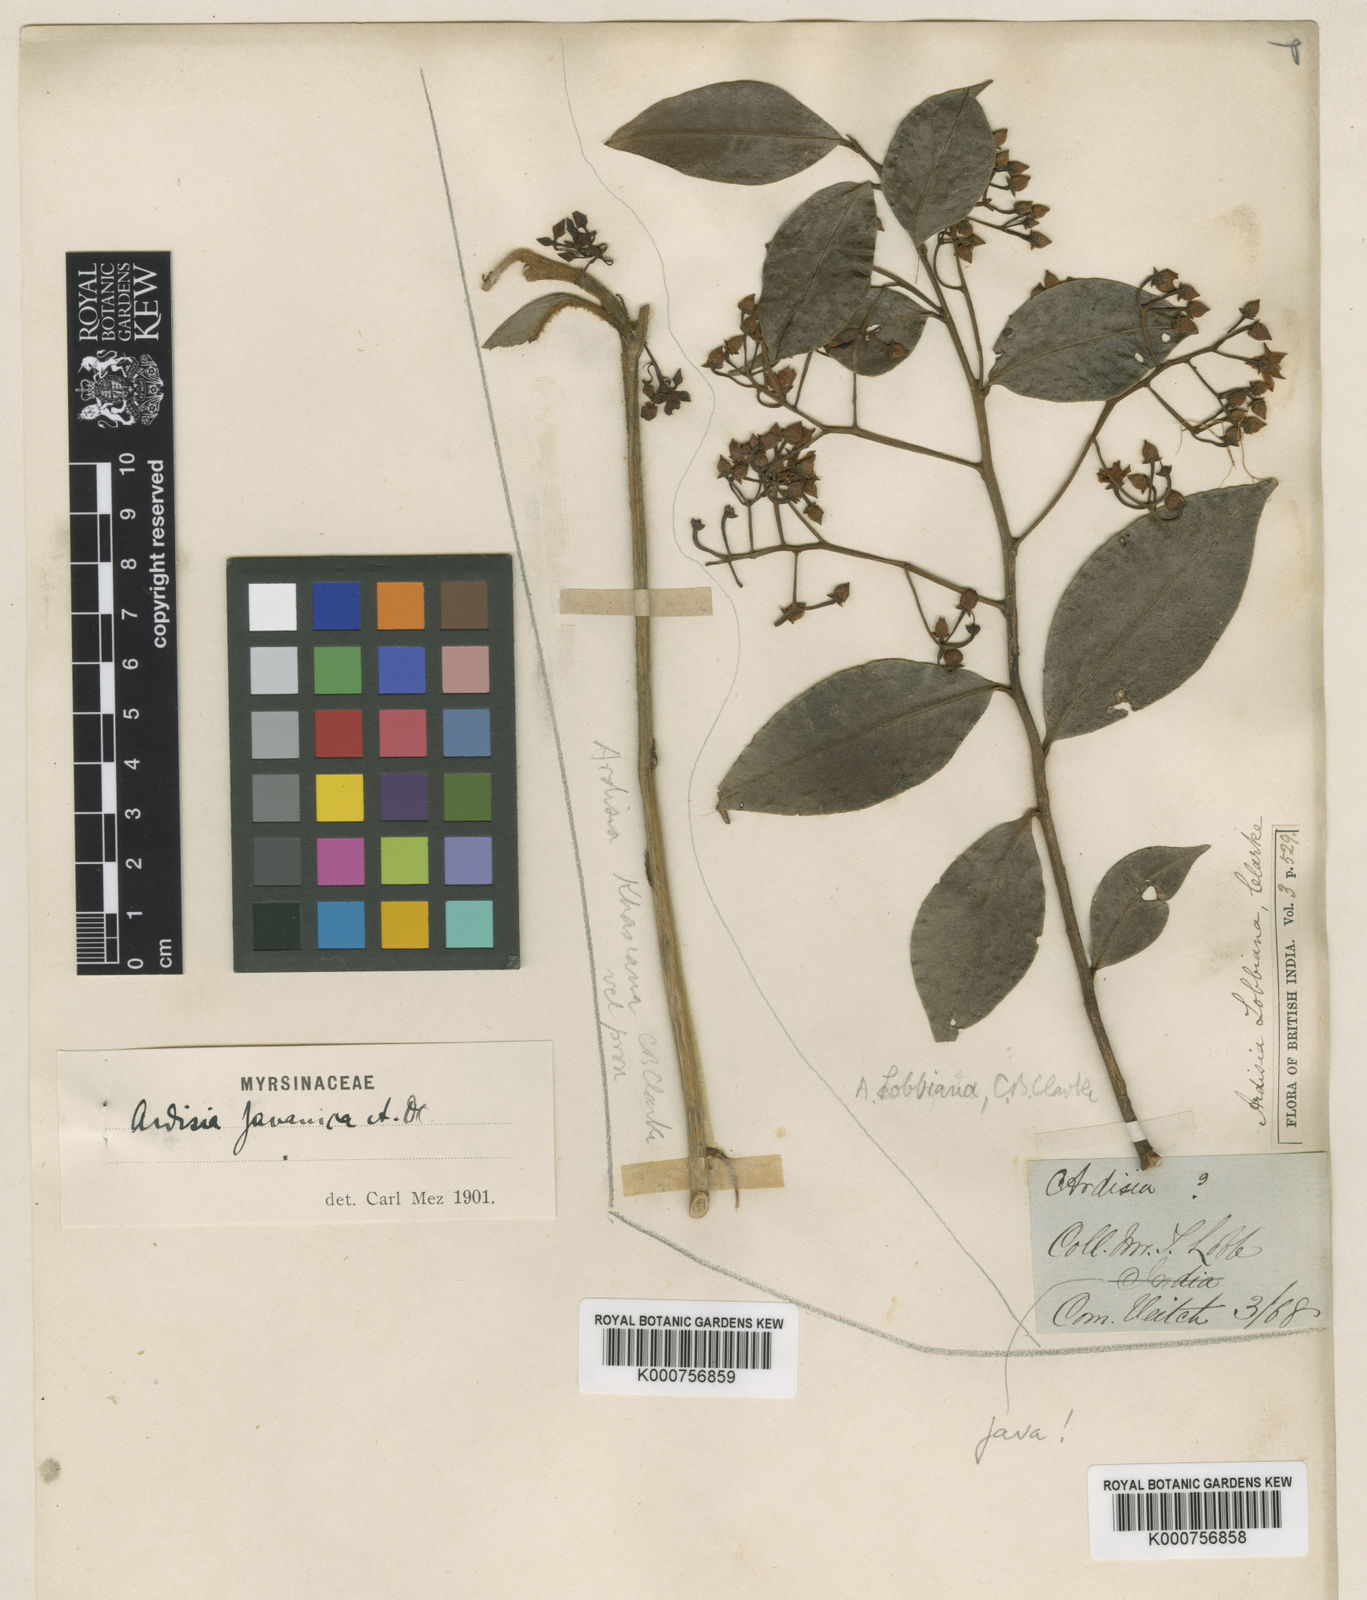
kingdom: Plantae
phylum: Tracheophyta
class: Magnoliopsida
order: Ericales
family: Primulaceae
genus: Ardisia
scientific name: Ardisia javanica
